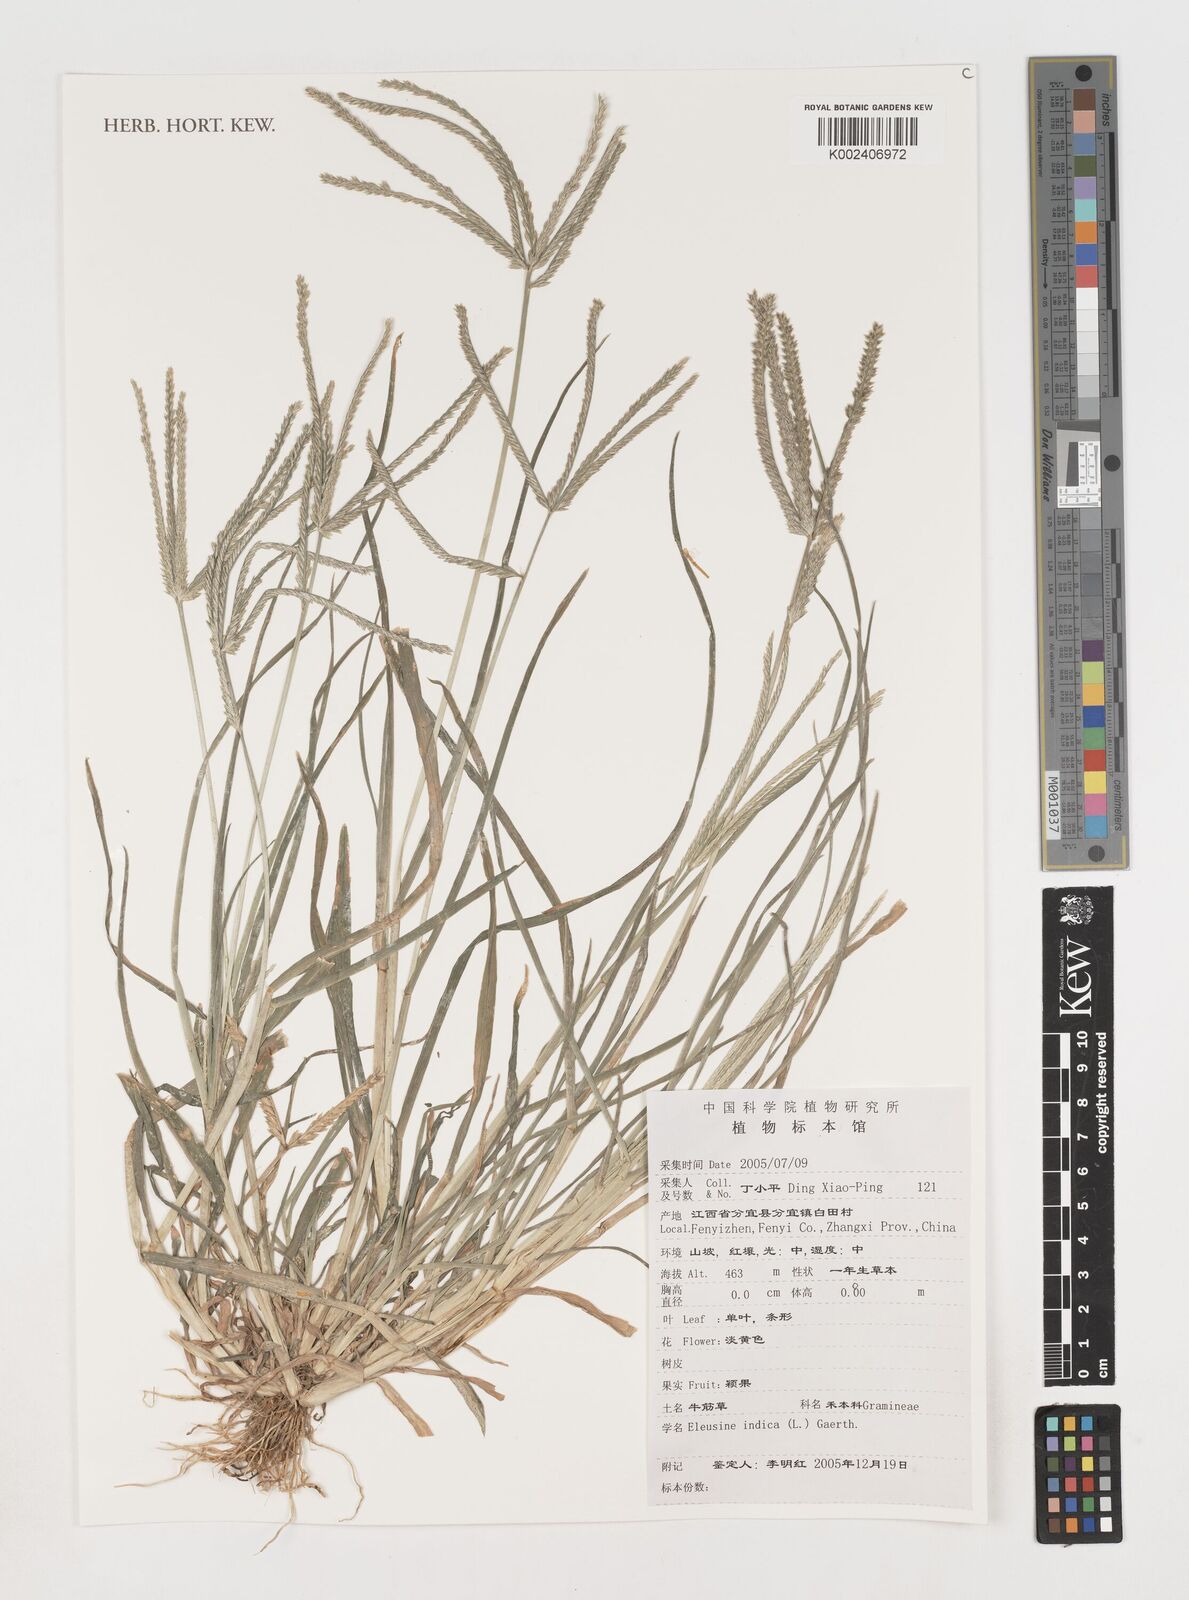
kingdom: Plantae
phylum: Tracheophyta
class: Liliopsida
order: Poales
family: Poaceae
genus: Eleusine
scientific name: Eleusine indica
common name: Yard-grass
